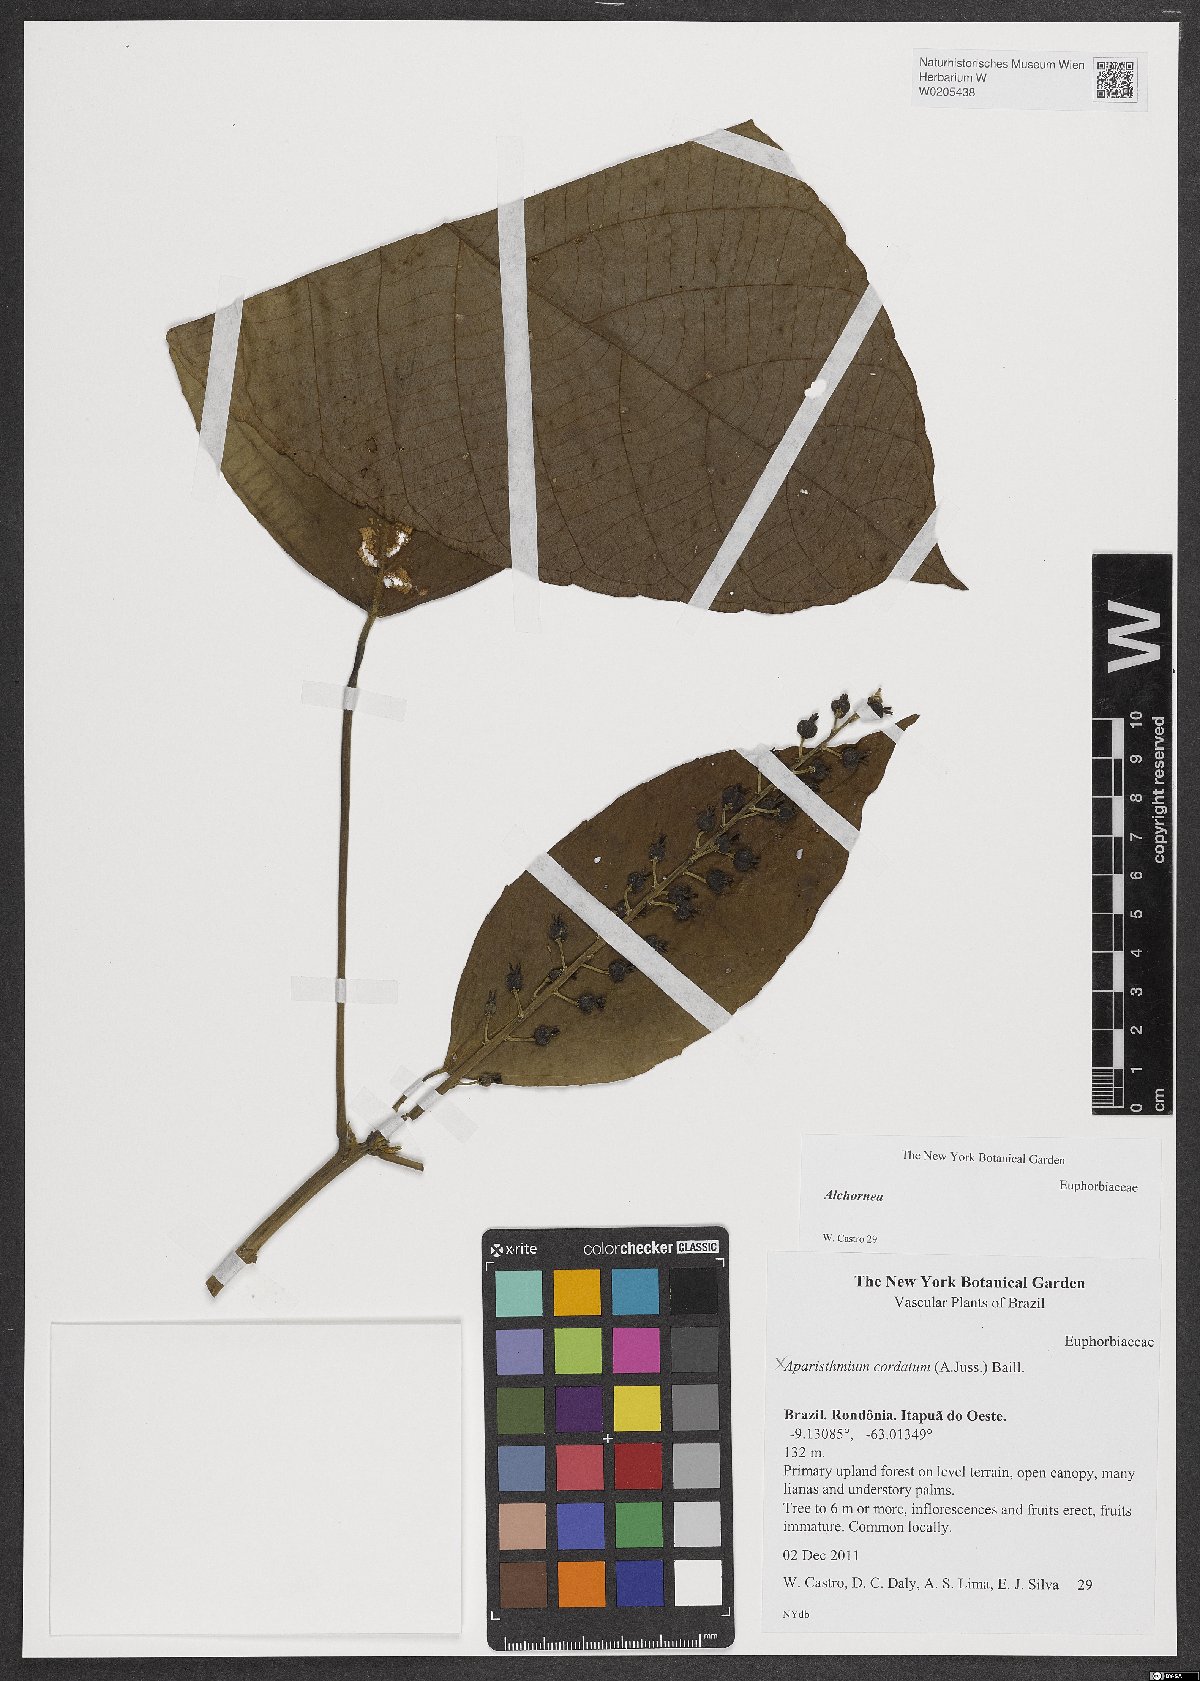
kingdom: Plantae
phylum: Tracheophyta
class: Magnoliopsida
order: Malpighiales
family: Euphorbiaceae
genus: Alchornea
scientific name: Alchornea
